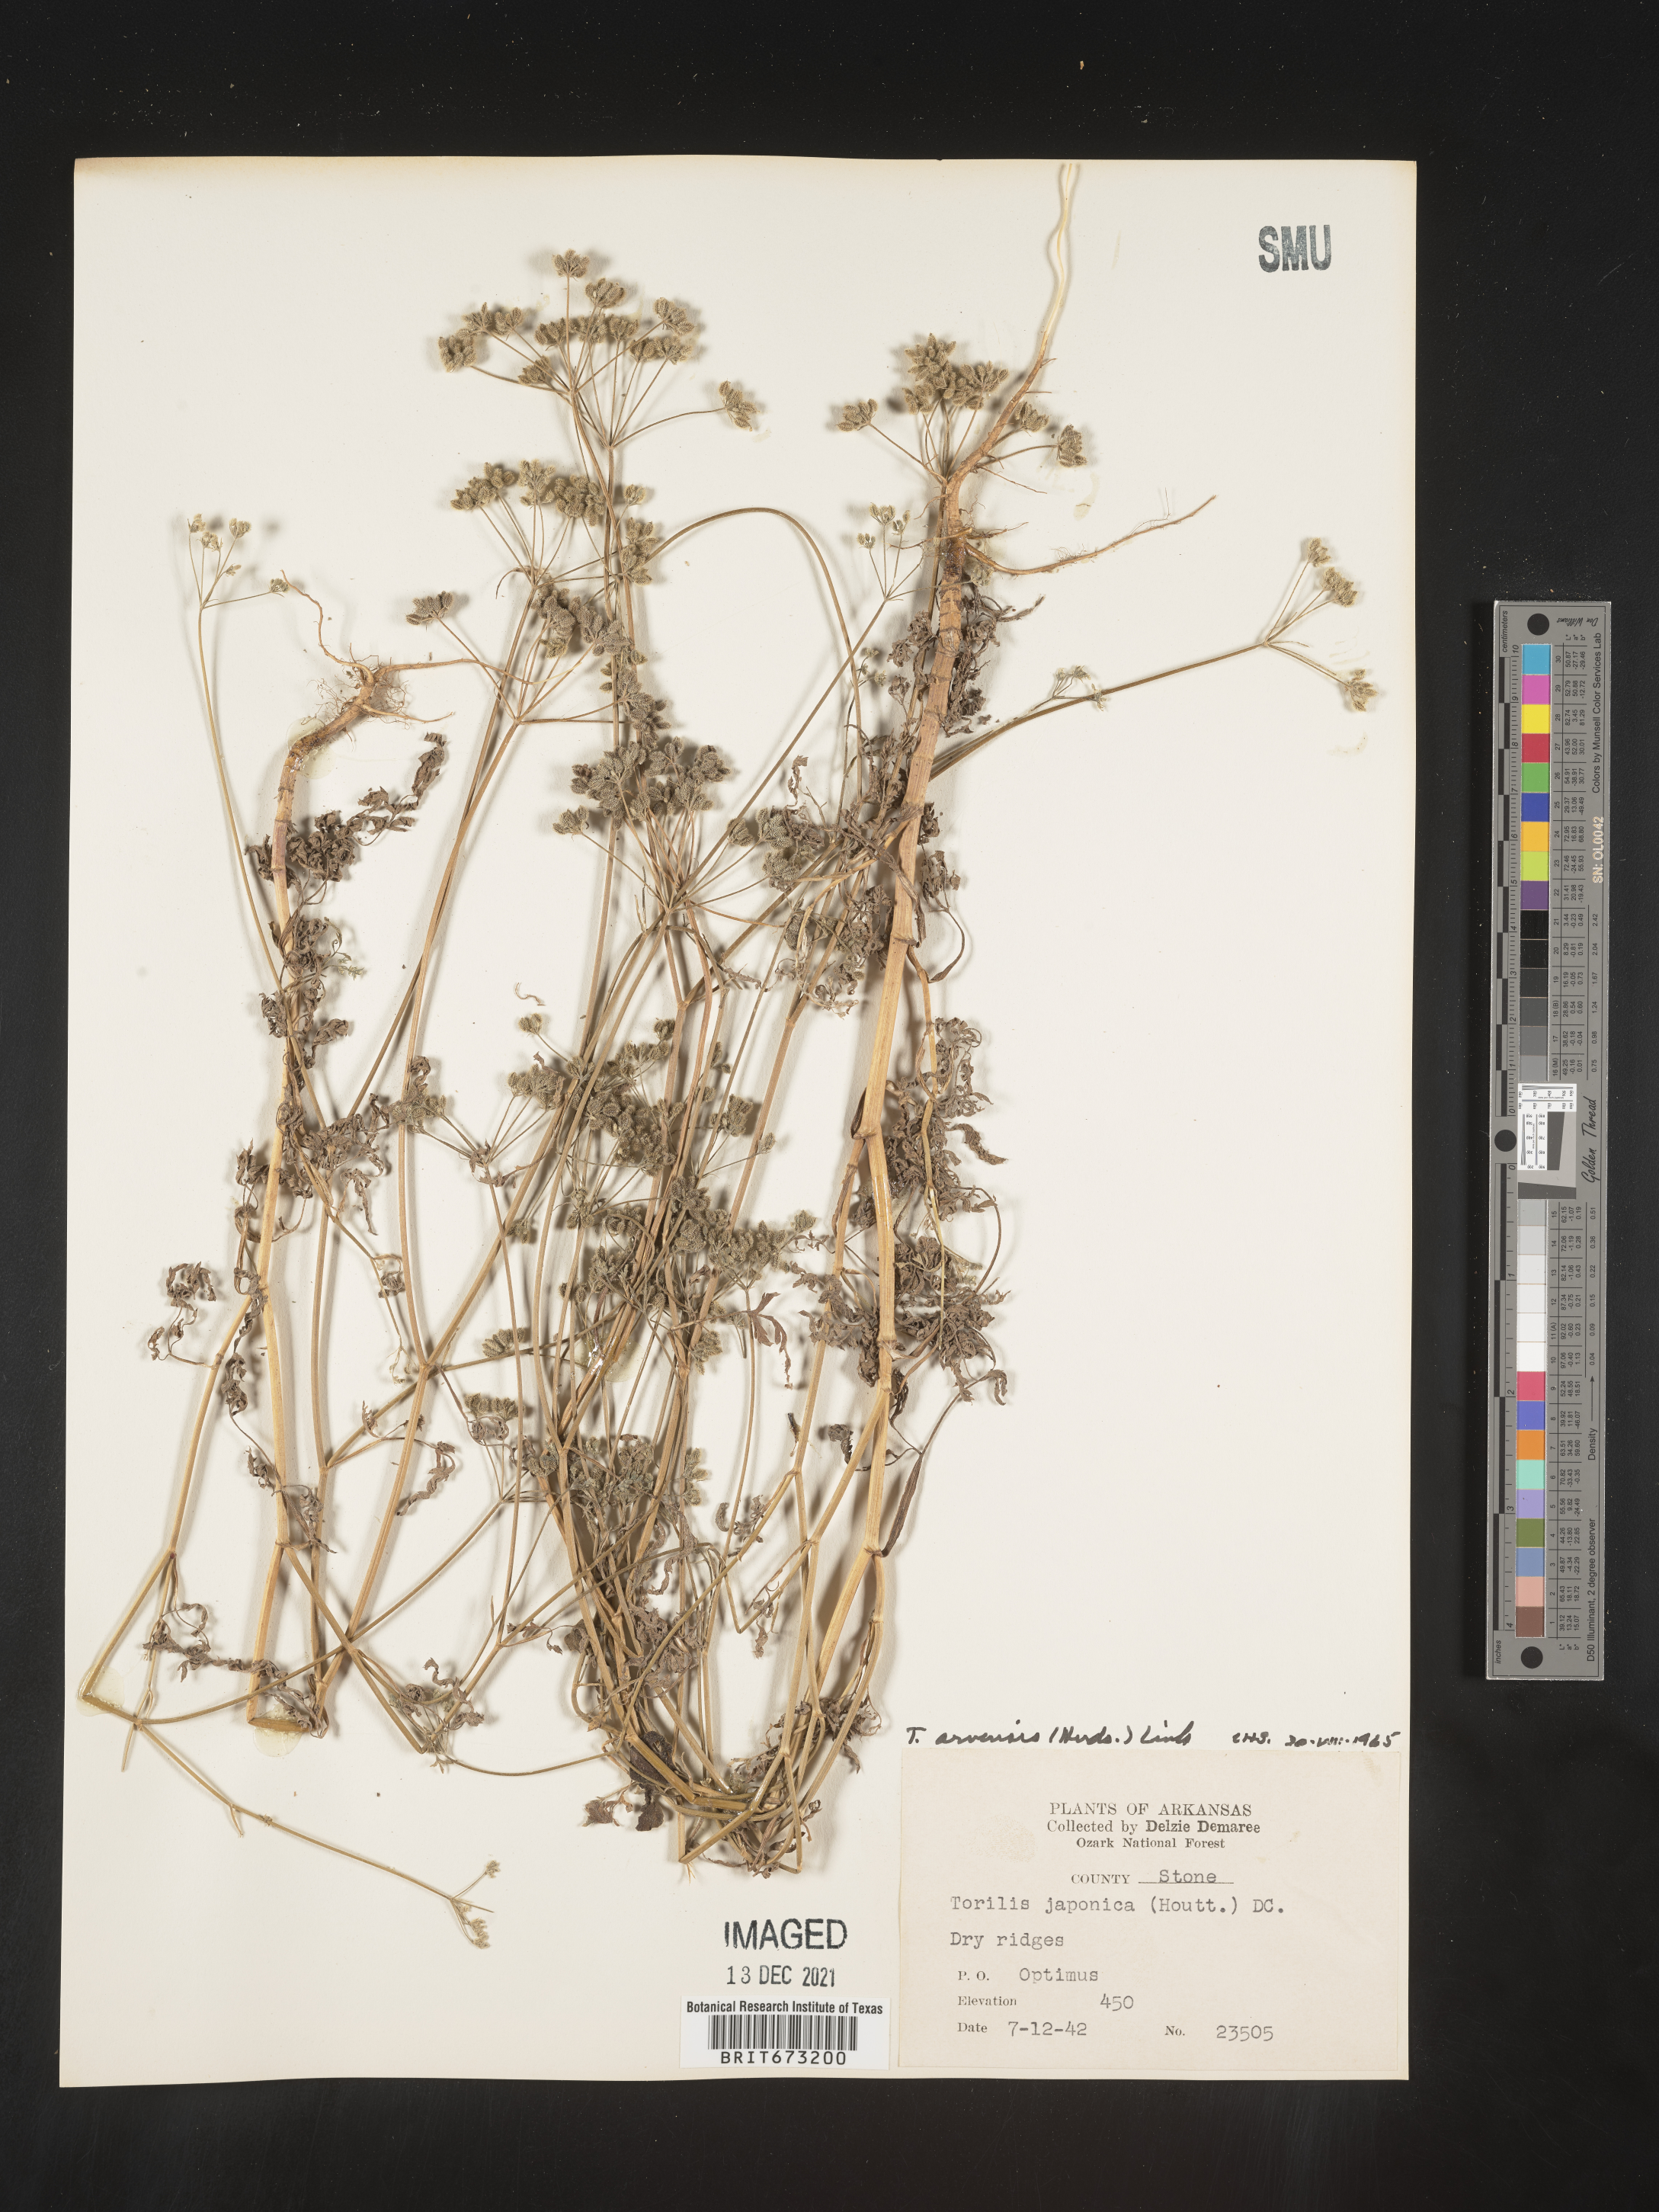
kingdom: Plantae
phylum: Tracheophyta
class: Magnoliopsida
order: Apiales
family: Apiaceae
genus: Torilis
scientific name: Torilis arvensis
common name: Spreading hedge-parsley
